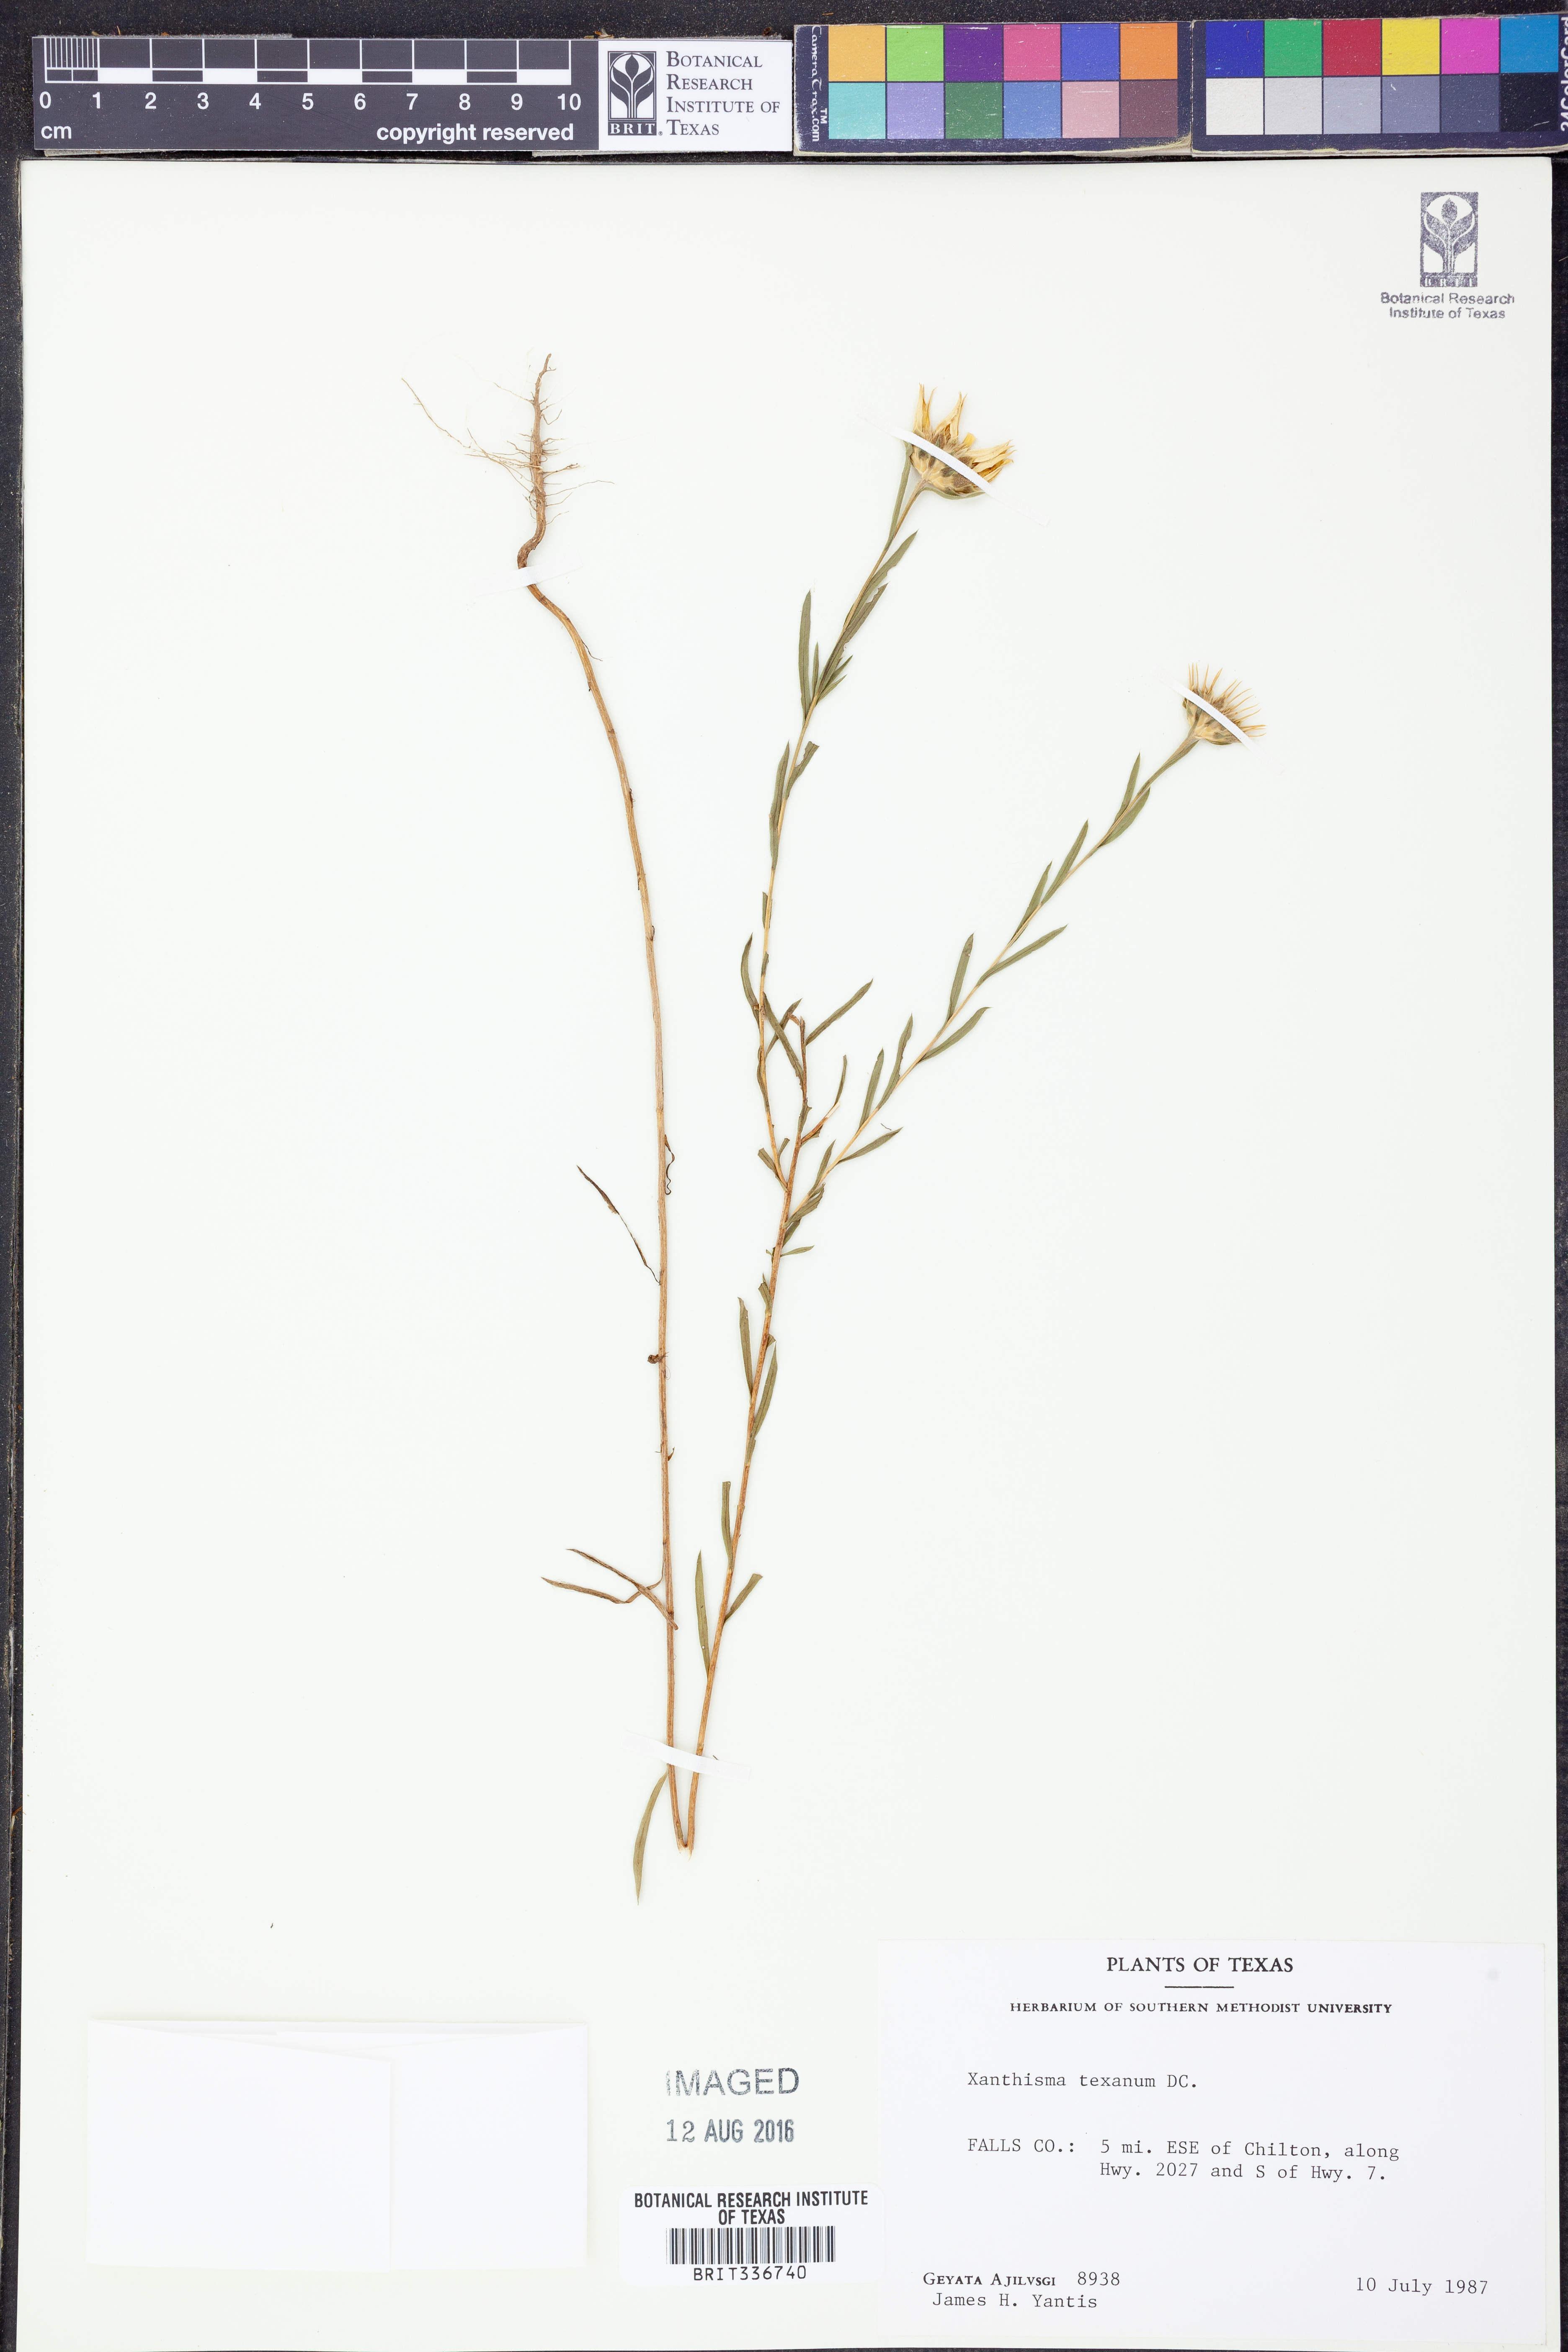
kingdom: Plantae
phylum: Tracheophyta
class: Magnoliopsida
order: Asterales
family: Asteraceae
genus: Xanthisma
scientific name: Xanthisma texanum
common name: Texas sleepy daisy
